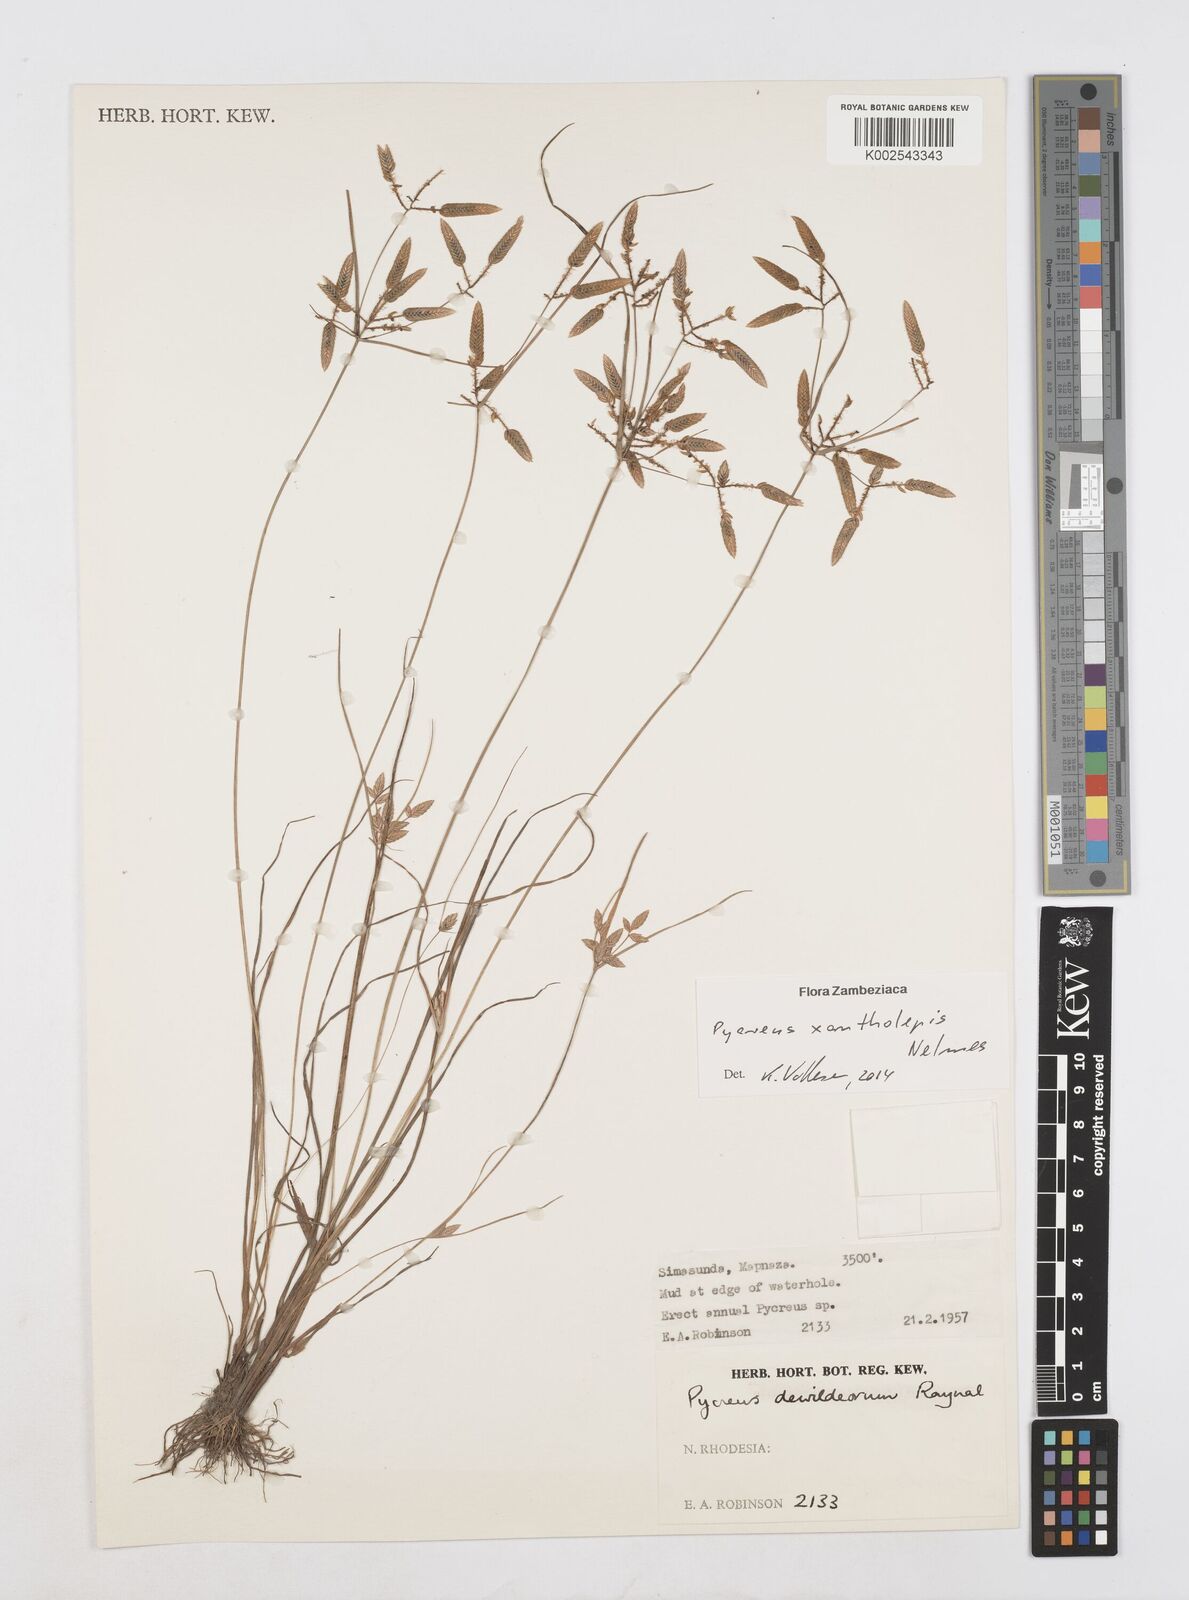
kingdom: Plantae
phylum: Tracheophyta
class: Liliopsida
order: Poales
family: Cyperaceae
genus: Cyperus
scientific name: Cyperus xantholepis
